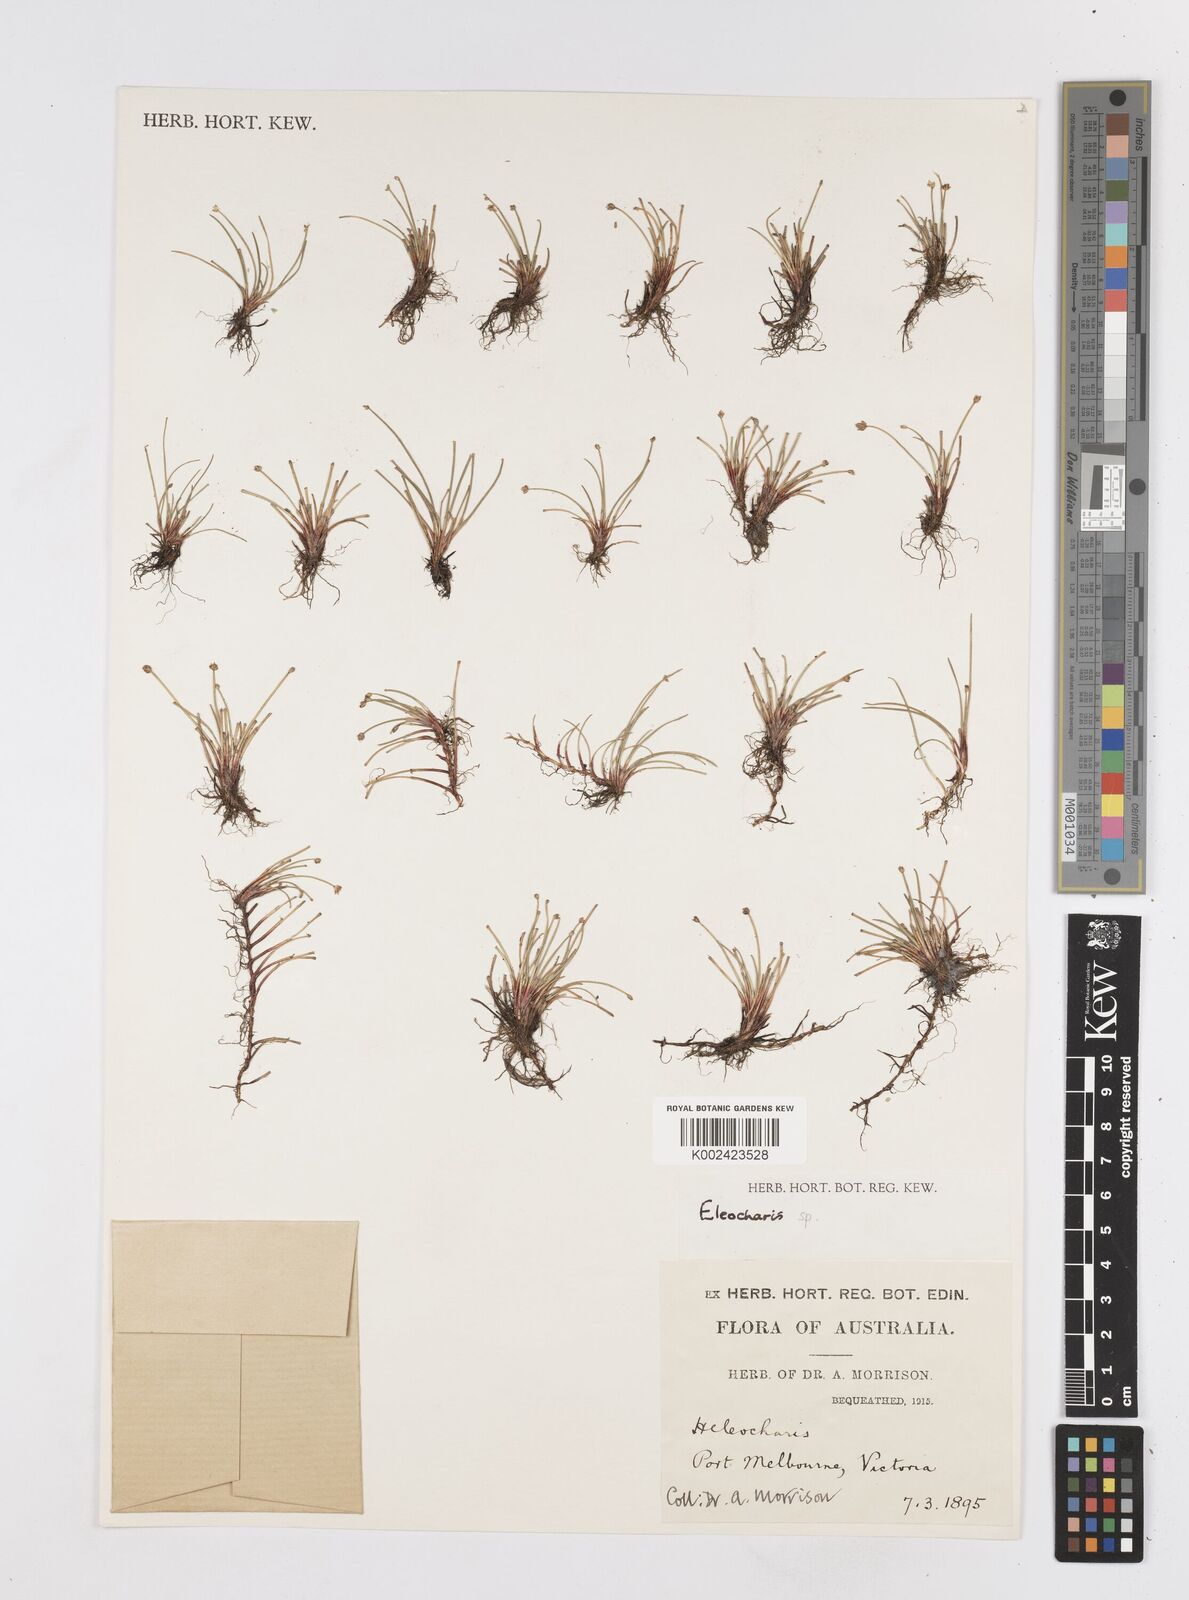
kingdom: Plantae
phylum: Tracheophyta
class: Liliopsida
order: Poales
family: Cyperaceae
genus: Eleocharis
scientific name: Eleocharis
